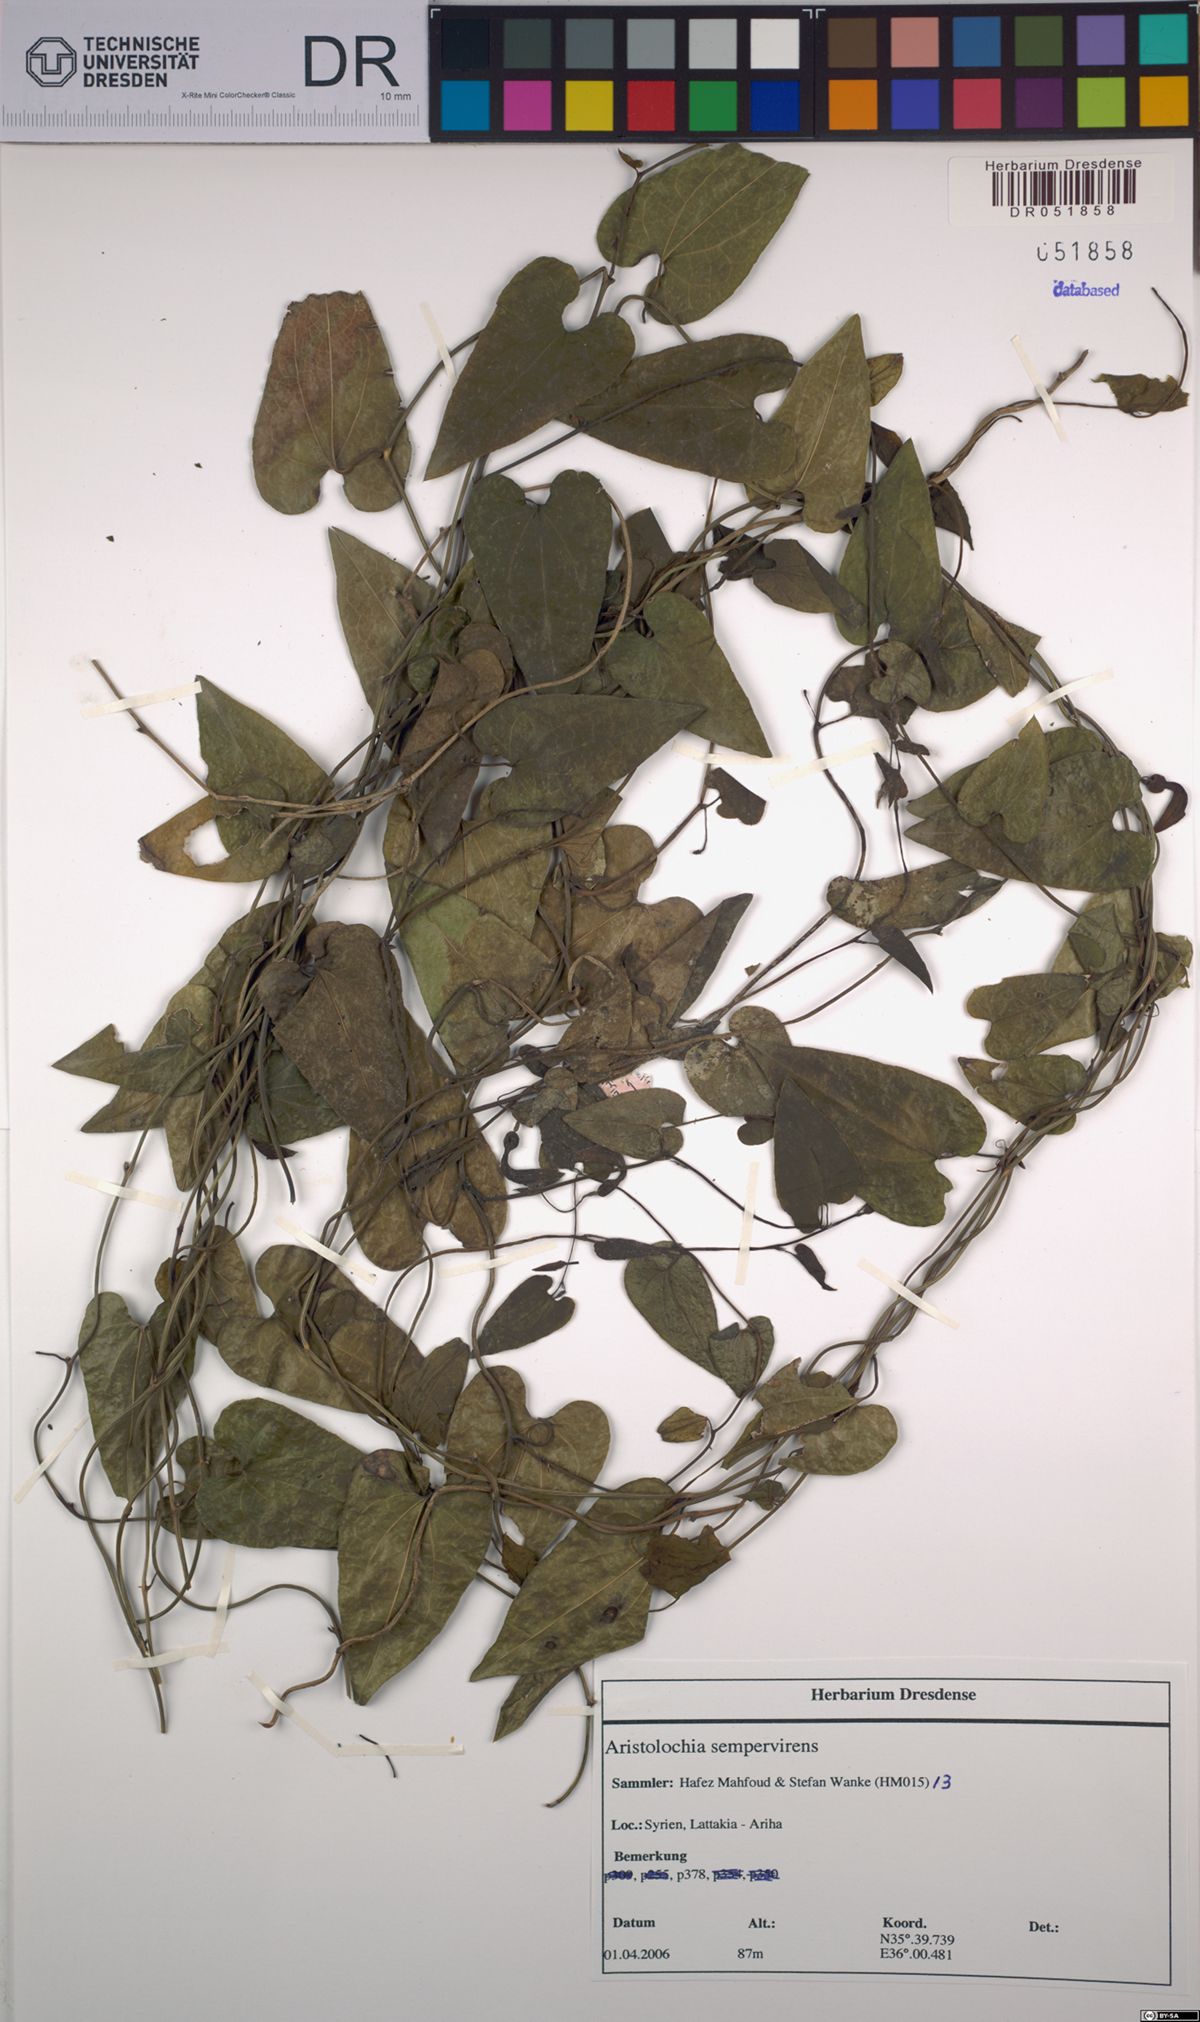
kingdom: Plantae
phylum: Tracheophyta
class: Magnoliopsida
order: Piperales
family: Aristolochiaceae
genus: Aristolochia
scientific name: Aristolochia sempervirens
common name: Long birthwort
